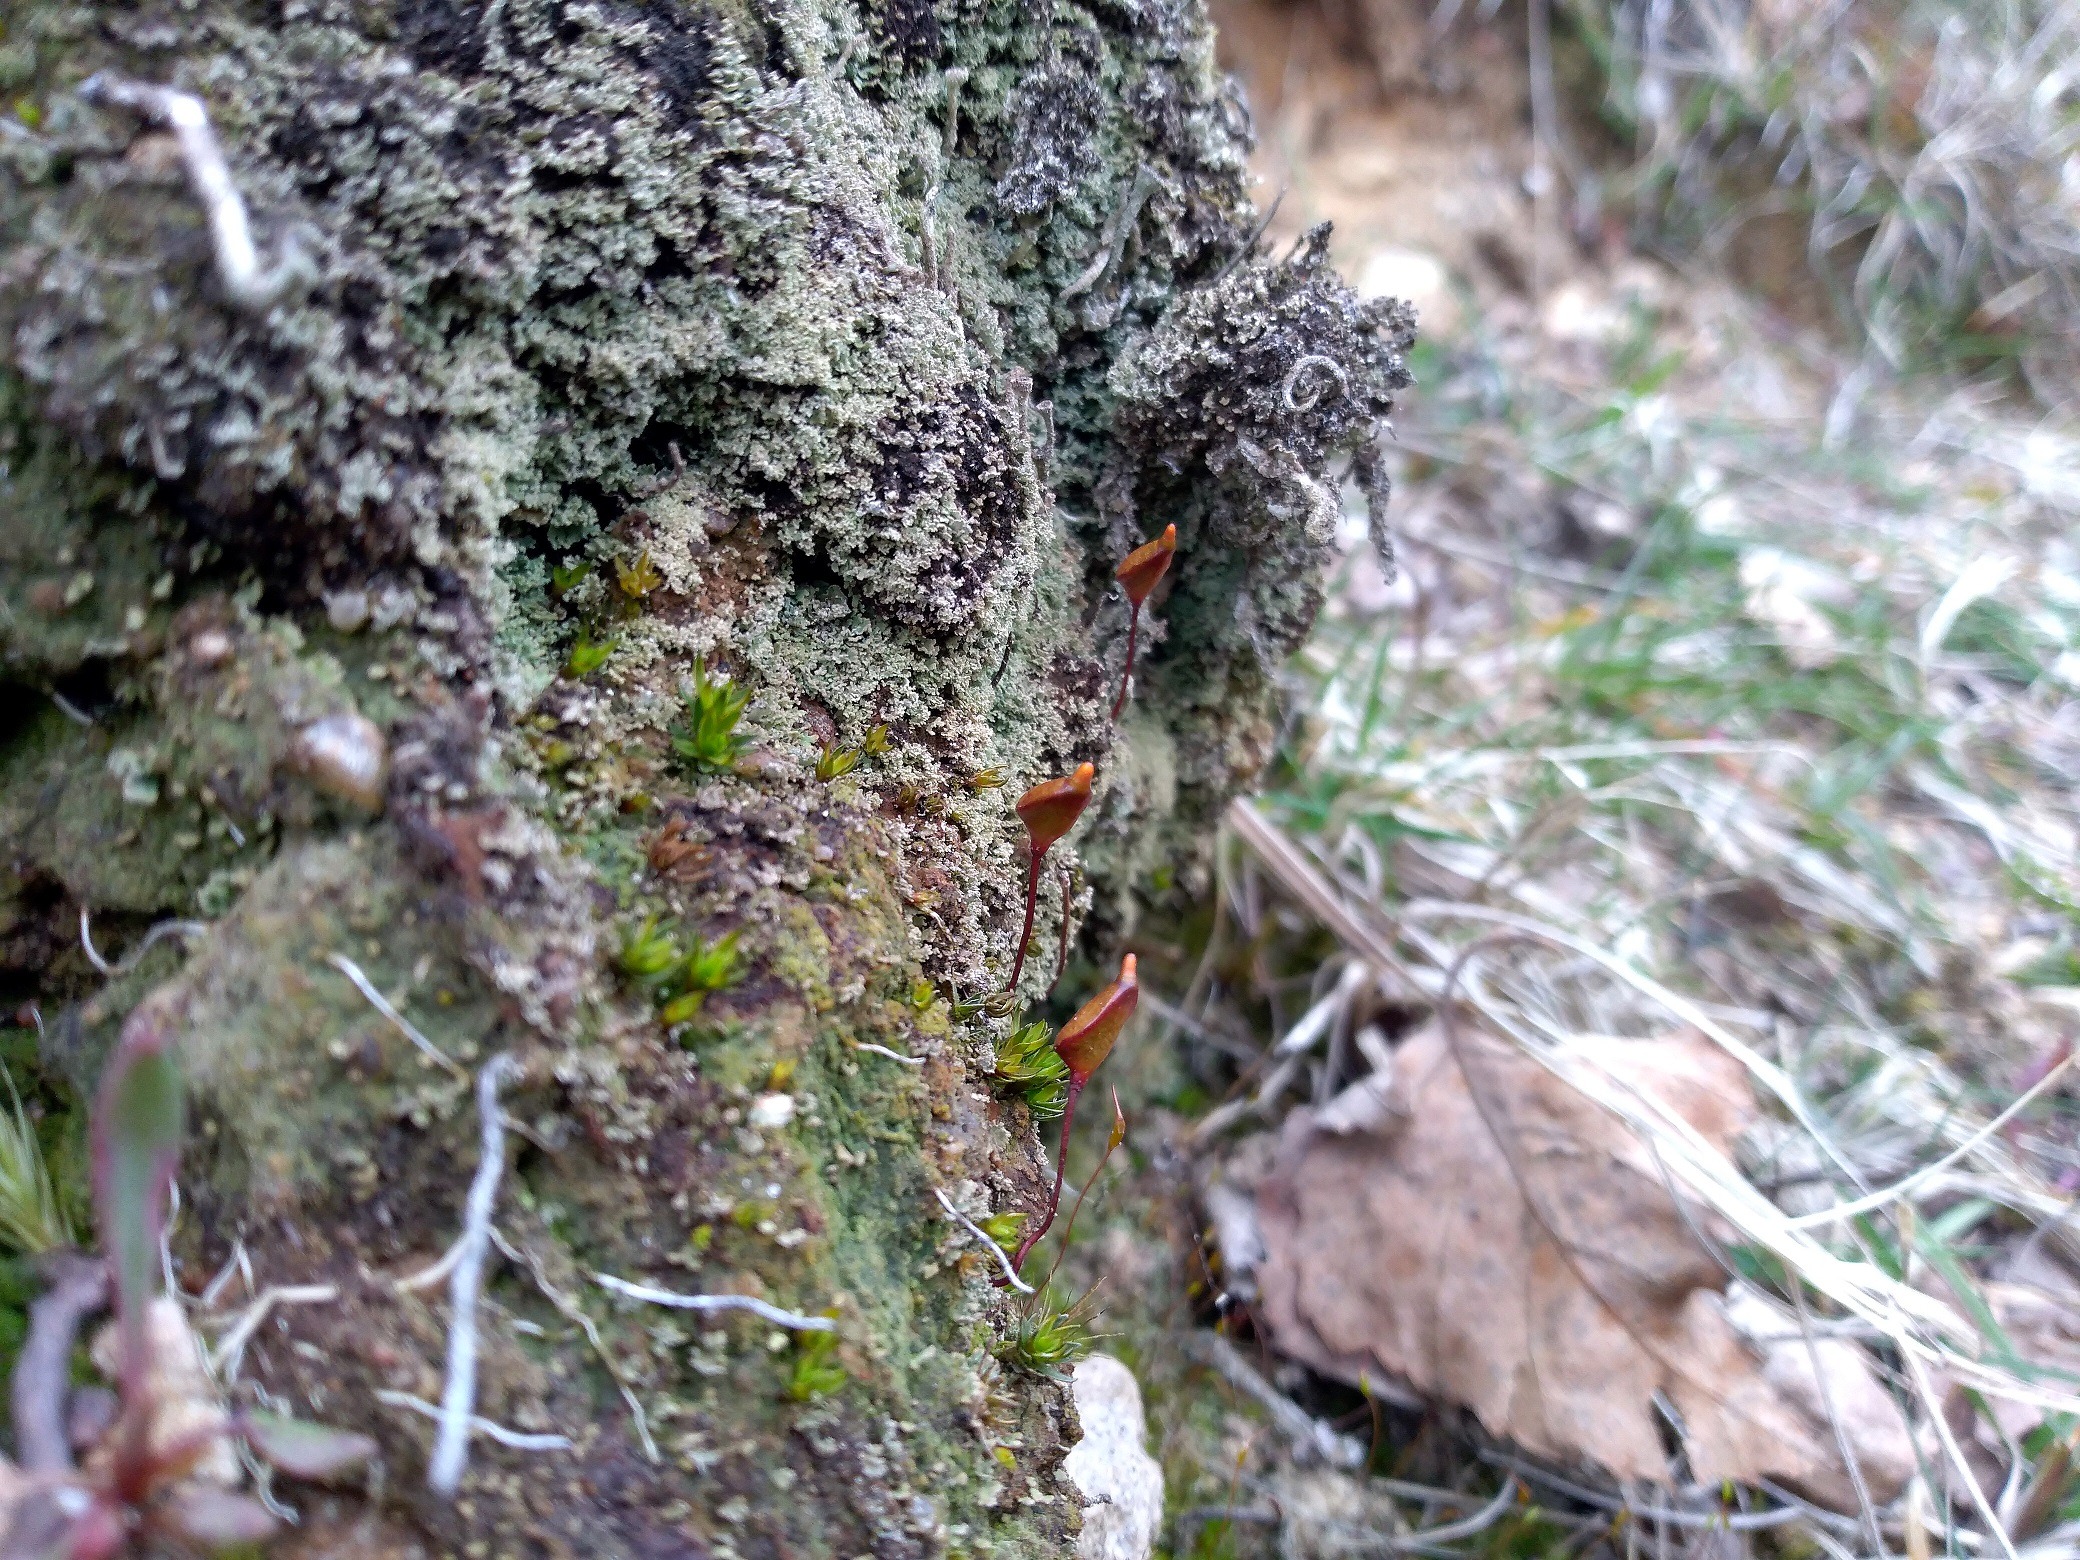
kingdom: Plantae
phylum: Bryophyta
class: Bryopsida
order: Buxbaumiales
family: Buxbaumiaceae
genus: Buxbaumia
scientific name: Buxbaumia aphylla
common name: Rundkapslet buxbaumia
